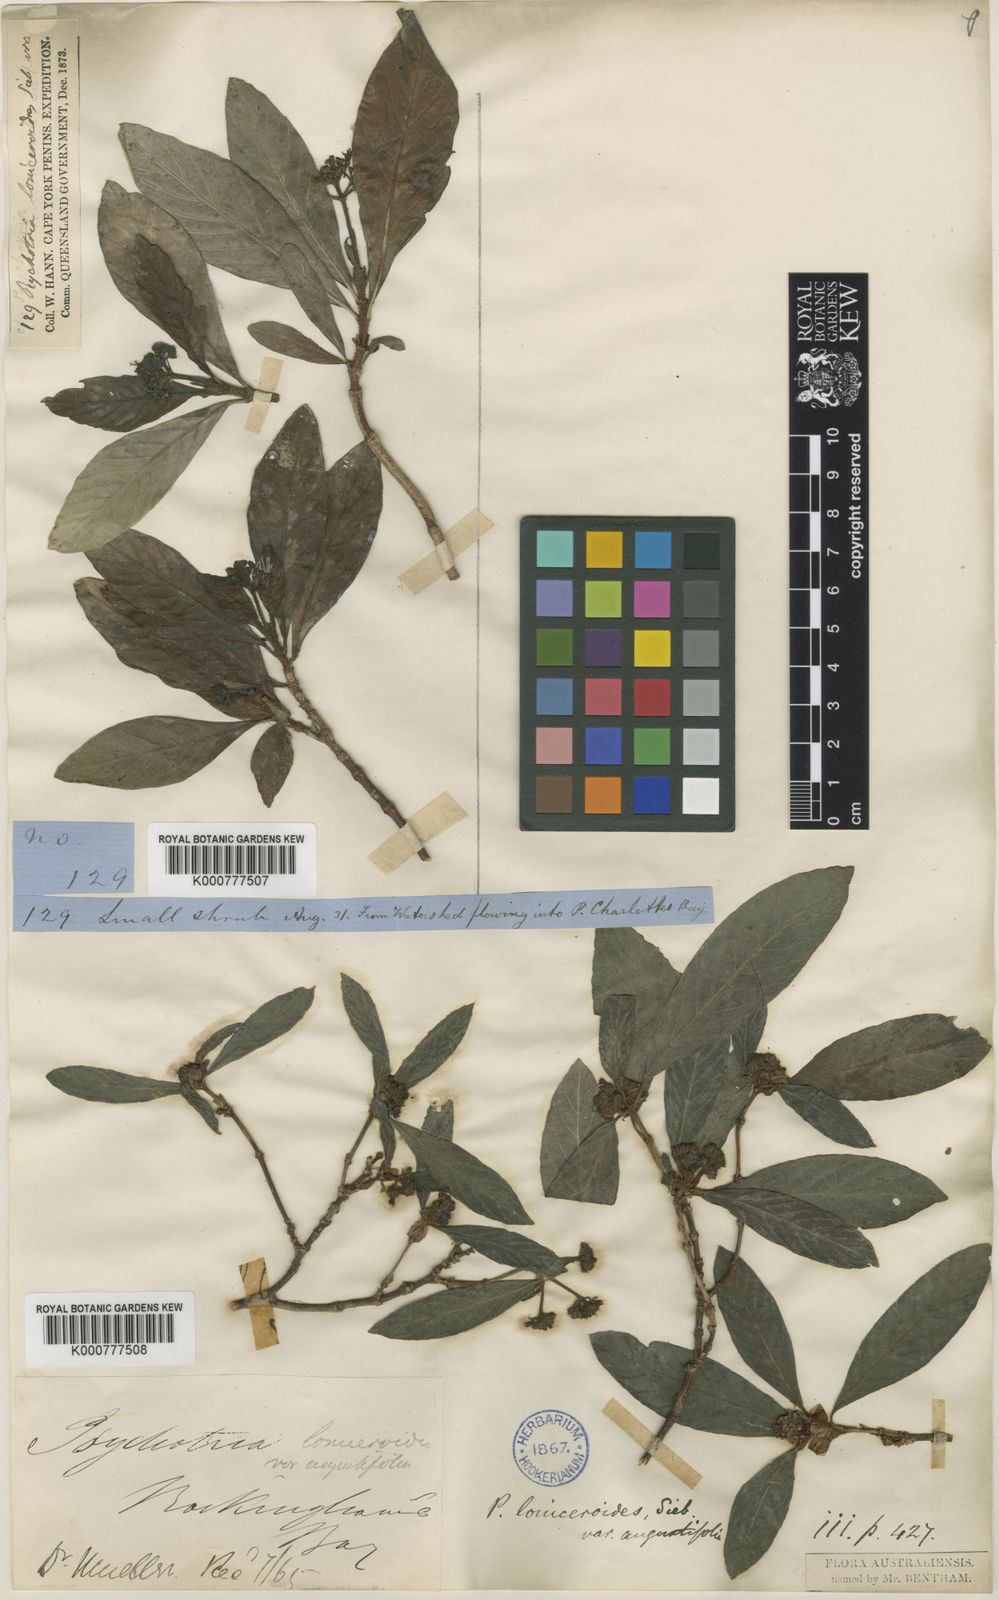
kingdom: Plantae
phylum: Tracheophyta
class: Magnoliopsida
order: Gentianales
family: Rubiaceae
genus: Psychotria
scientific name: Psychotria loniceroides
